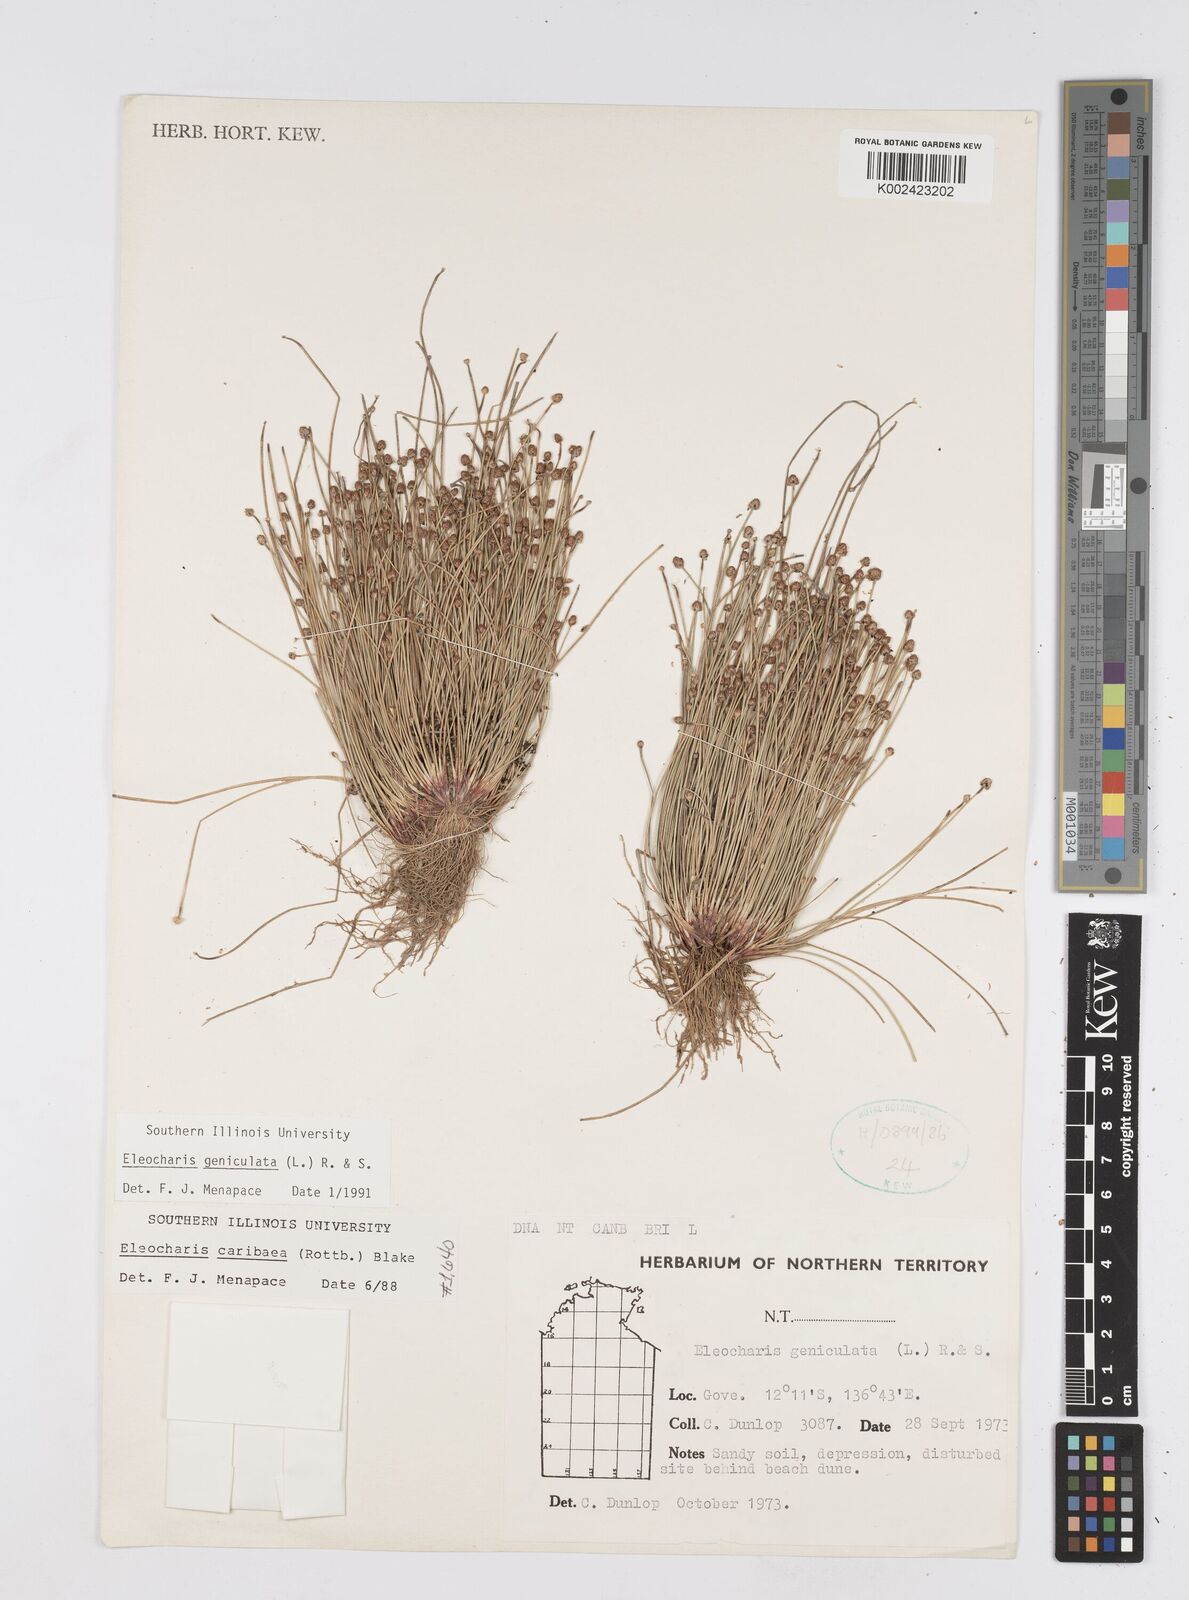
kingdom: Plantae
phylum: Tracheophyta
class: Liliopsida
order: Poales
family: Cyperaceae
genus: Eleocharis
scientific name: Eleocharis geniculata
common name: Canada spikesedge
